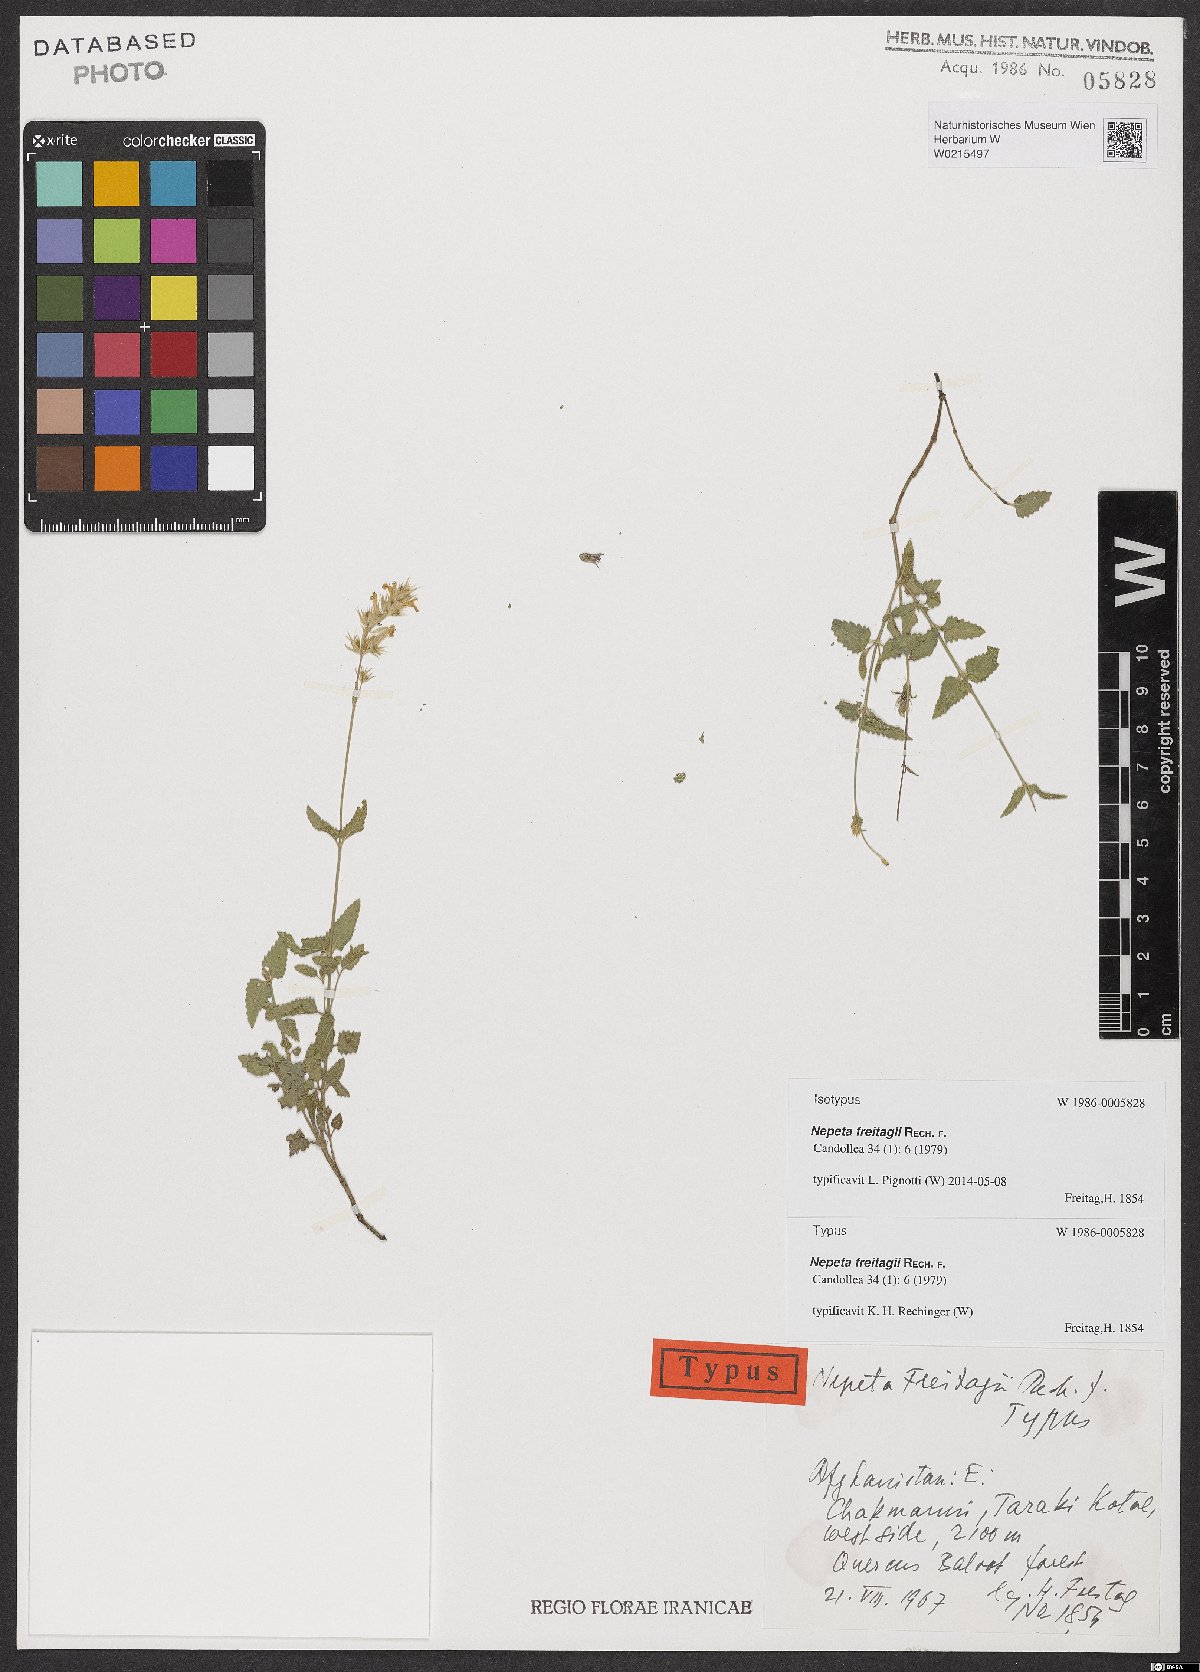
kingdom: Plantae
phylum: Tracheophyta
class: Magnoliopsida
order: Lamiales
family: Lamiaceae
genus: Nepeta
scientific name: Nepeta freitagii
